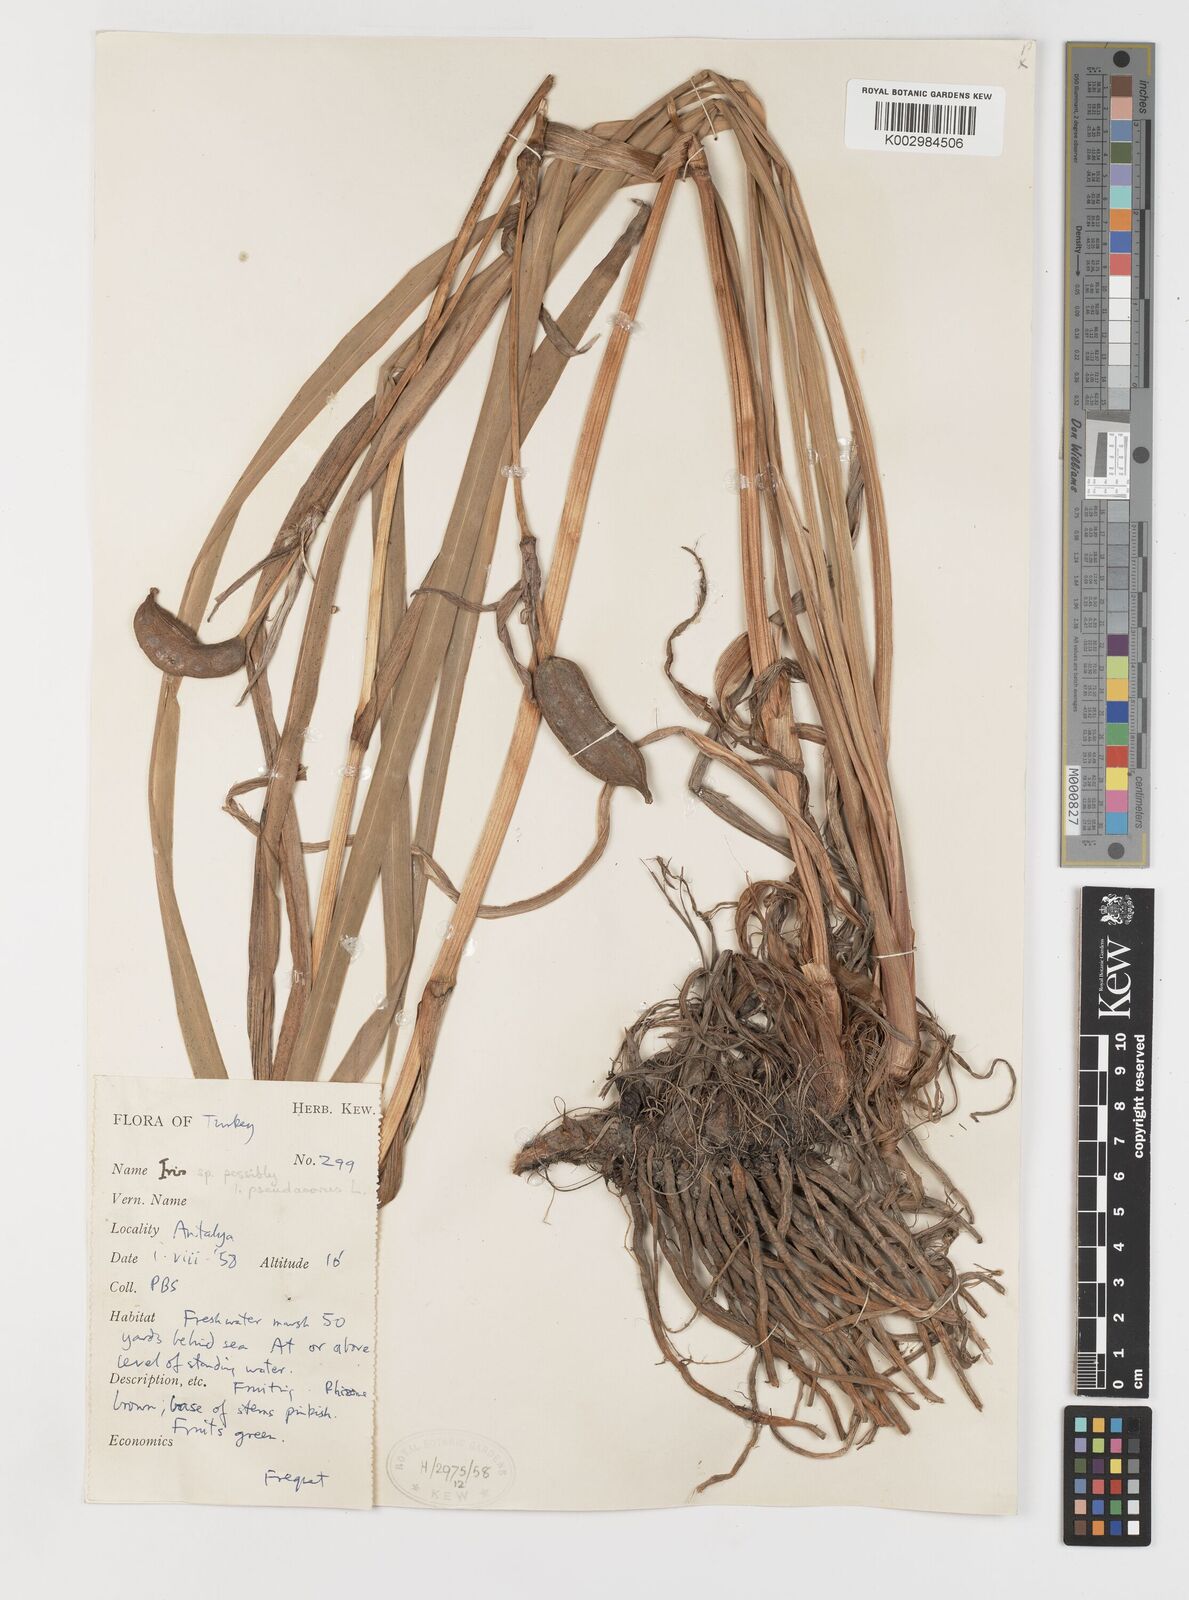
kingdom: Plantae
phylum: Tracheophyta
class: Liliopsida
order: Asparagales
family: Iridaceae
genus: Iris
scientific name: Iris pseudacorus
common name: Yellow flag
